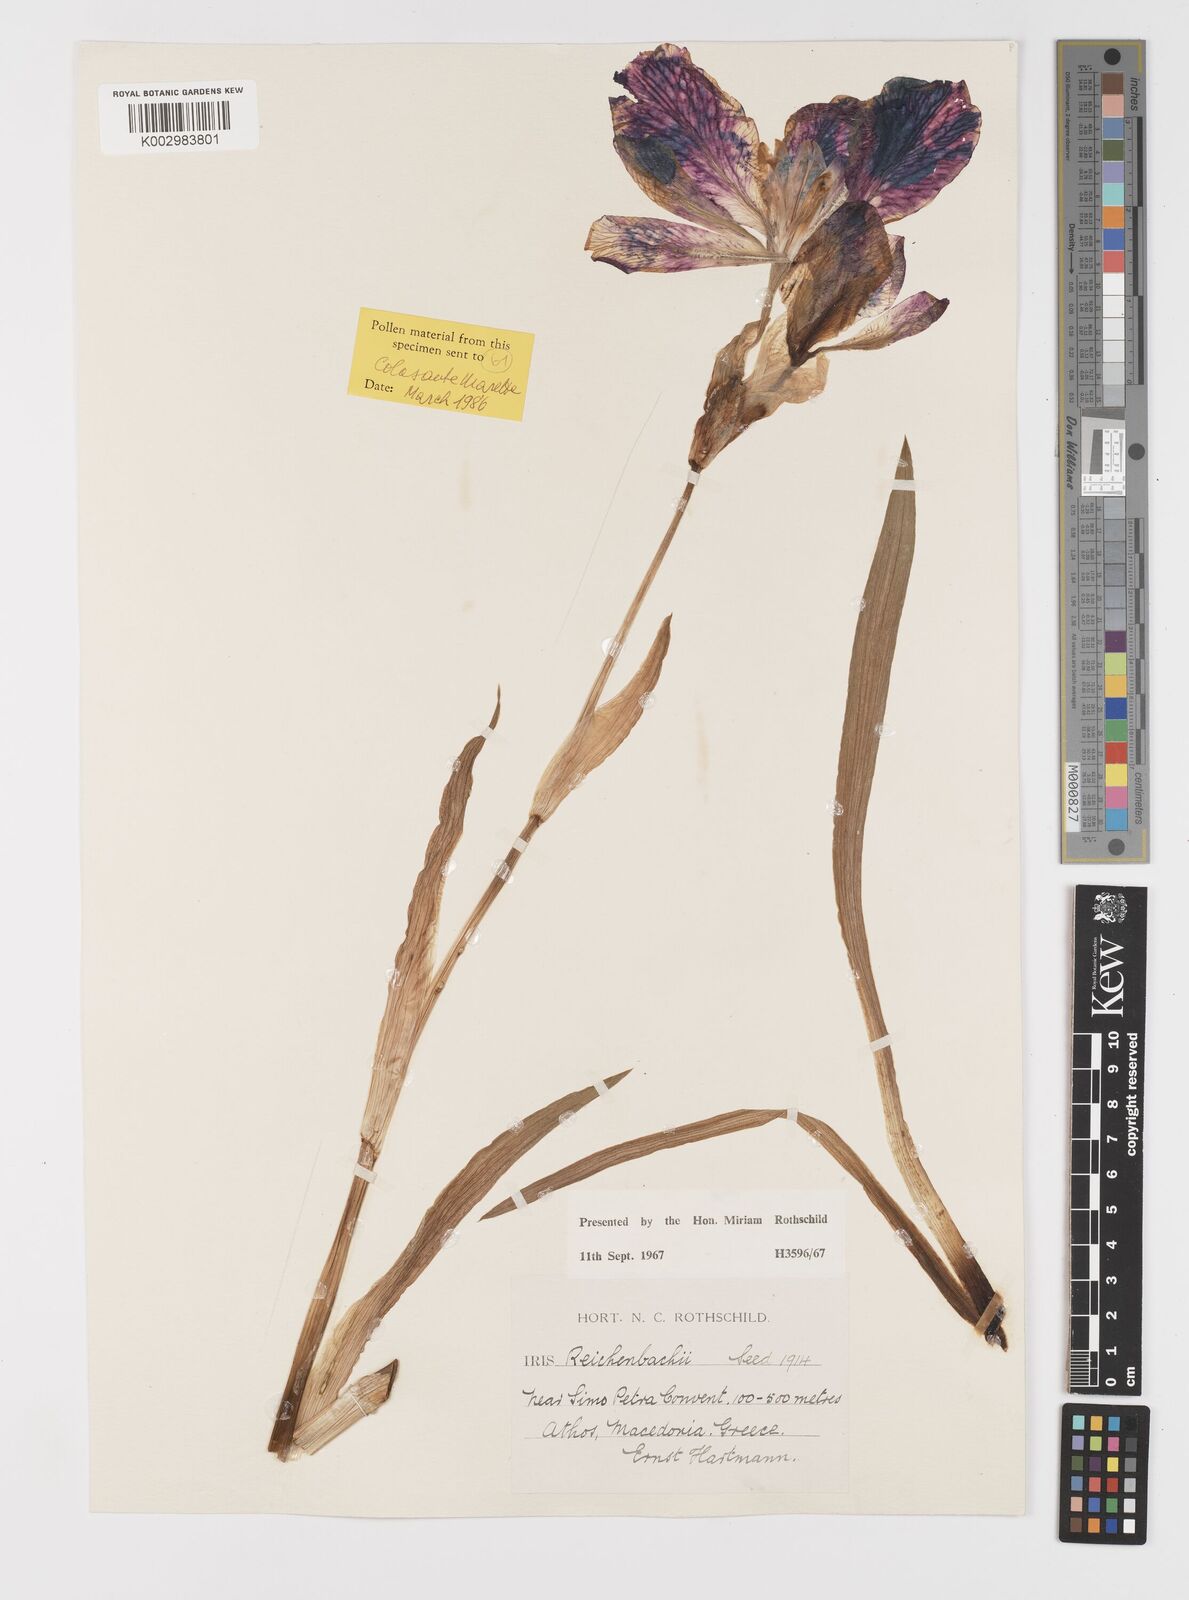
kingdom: Plantae
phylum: Tracheophyta
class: Liliopsida
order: Asparagales
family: Iridaceae
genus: Iris
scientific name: Iris reichenbachii
